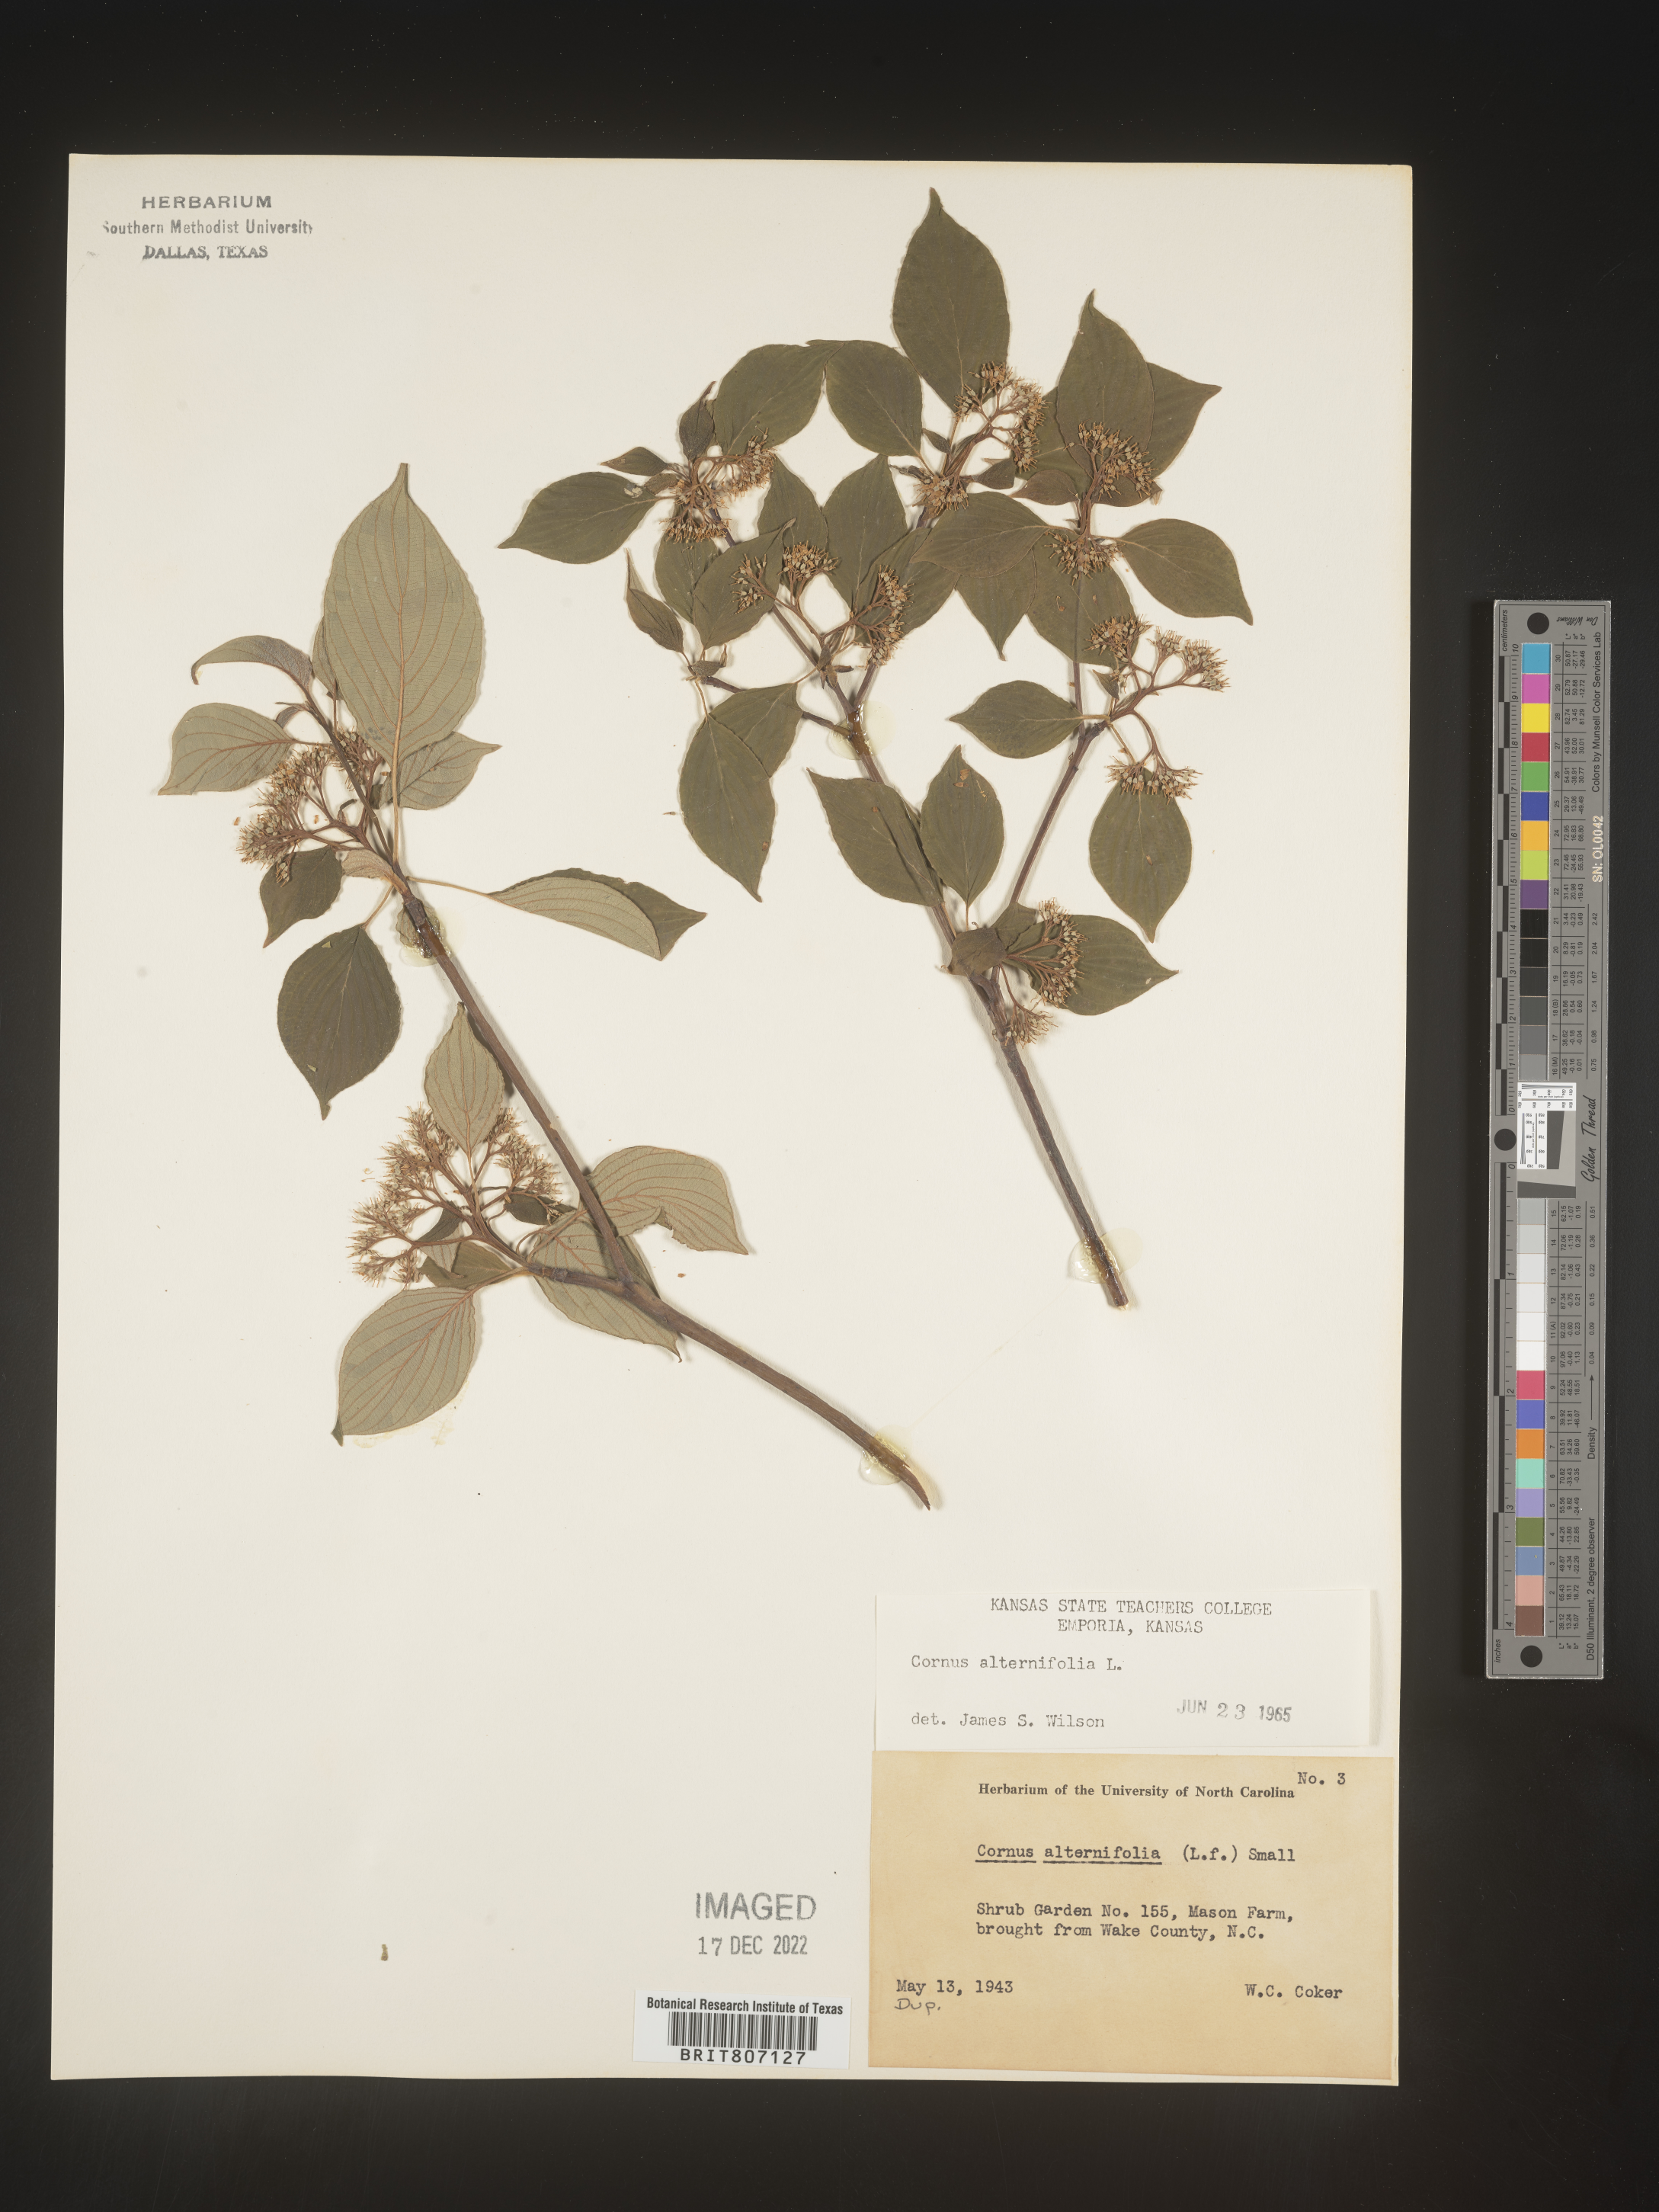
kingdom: Plantae
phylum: Tracheophyta
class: Magnoliopsida
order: Cornales
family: Cornaceae
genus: Cornus
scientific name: Cornus alternifolia
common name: Pagoda dogwood
